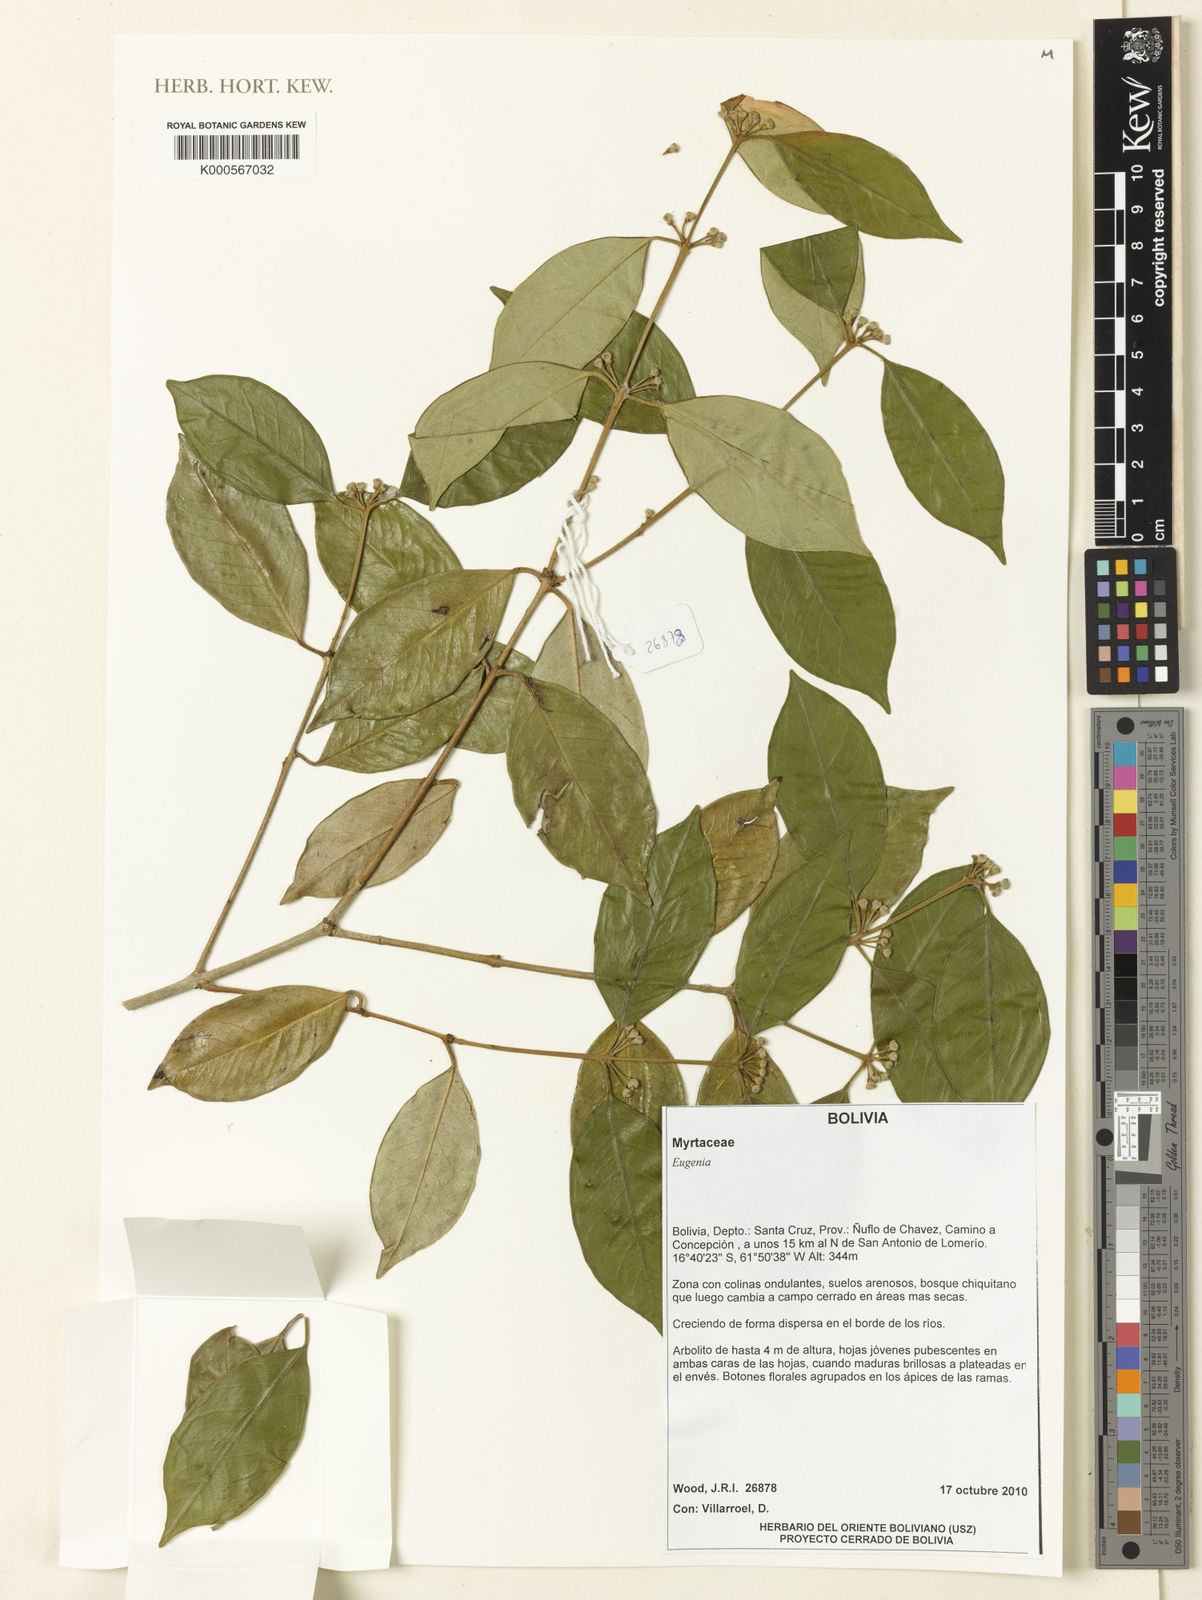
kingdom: Plantae
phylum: Tracheophyta
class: Magnoliopsida
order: Myrtales
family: Myrtaceae
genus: Eugenia
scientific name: Eugenia teresa-ruiziana
